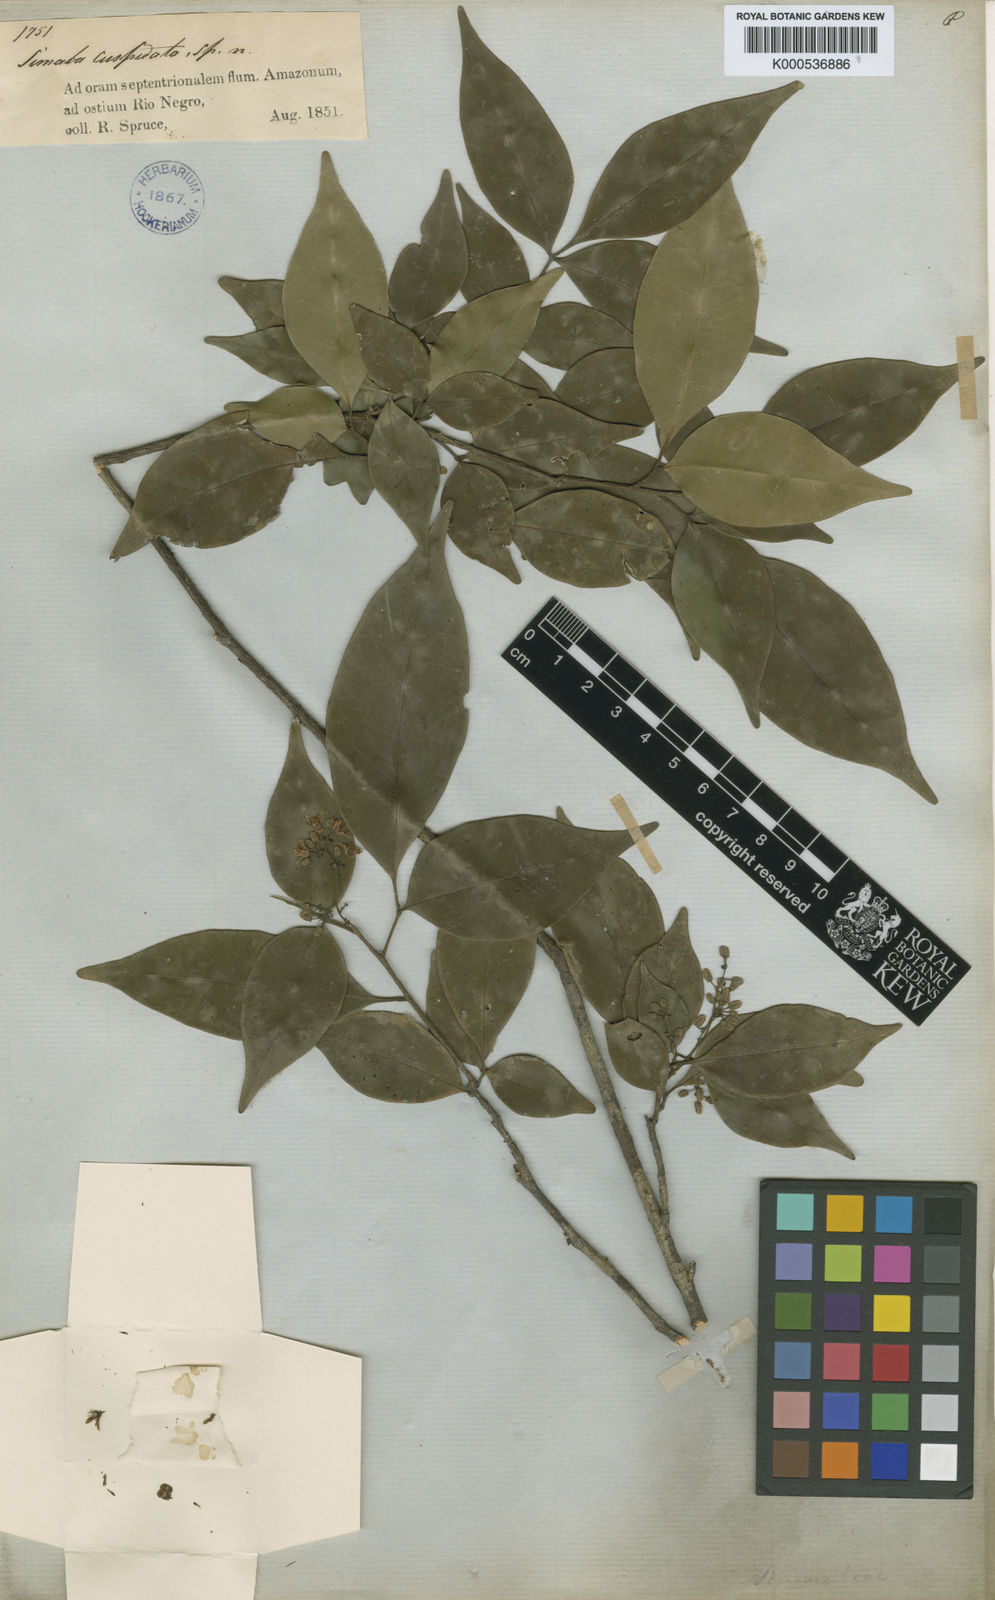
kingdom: Plantae
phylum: Tracheophyta
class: Magnoliopsida
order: Sapindales
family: Simaroubaceae
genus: Simaba
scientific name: Simaba guianensis
